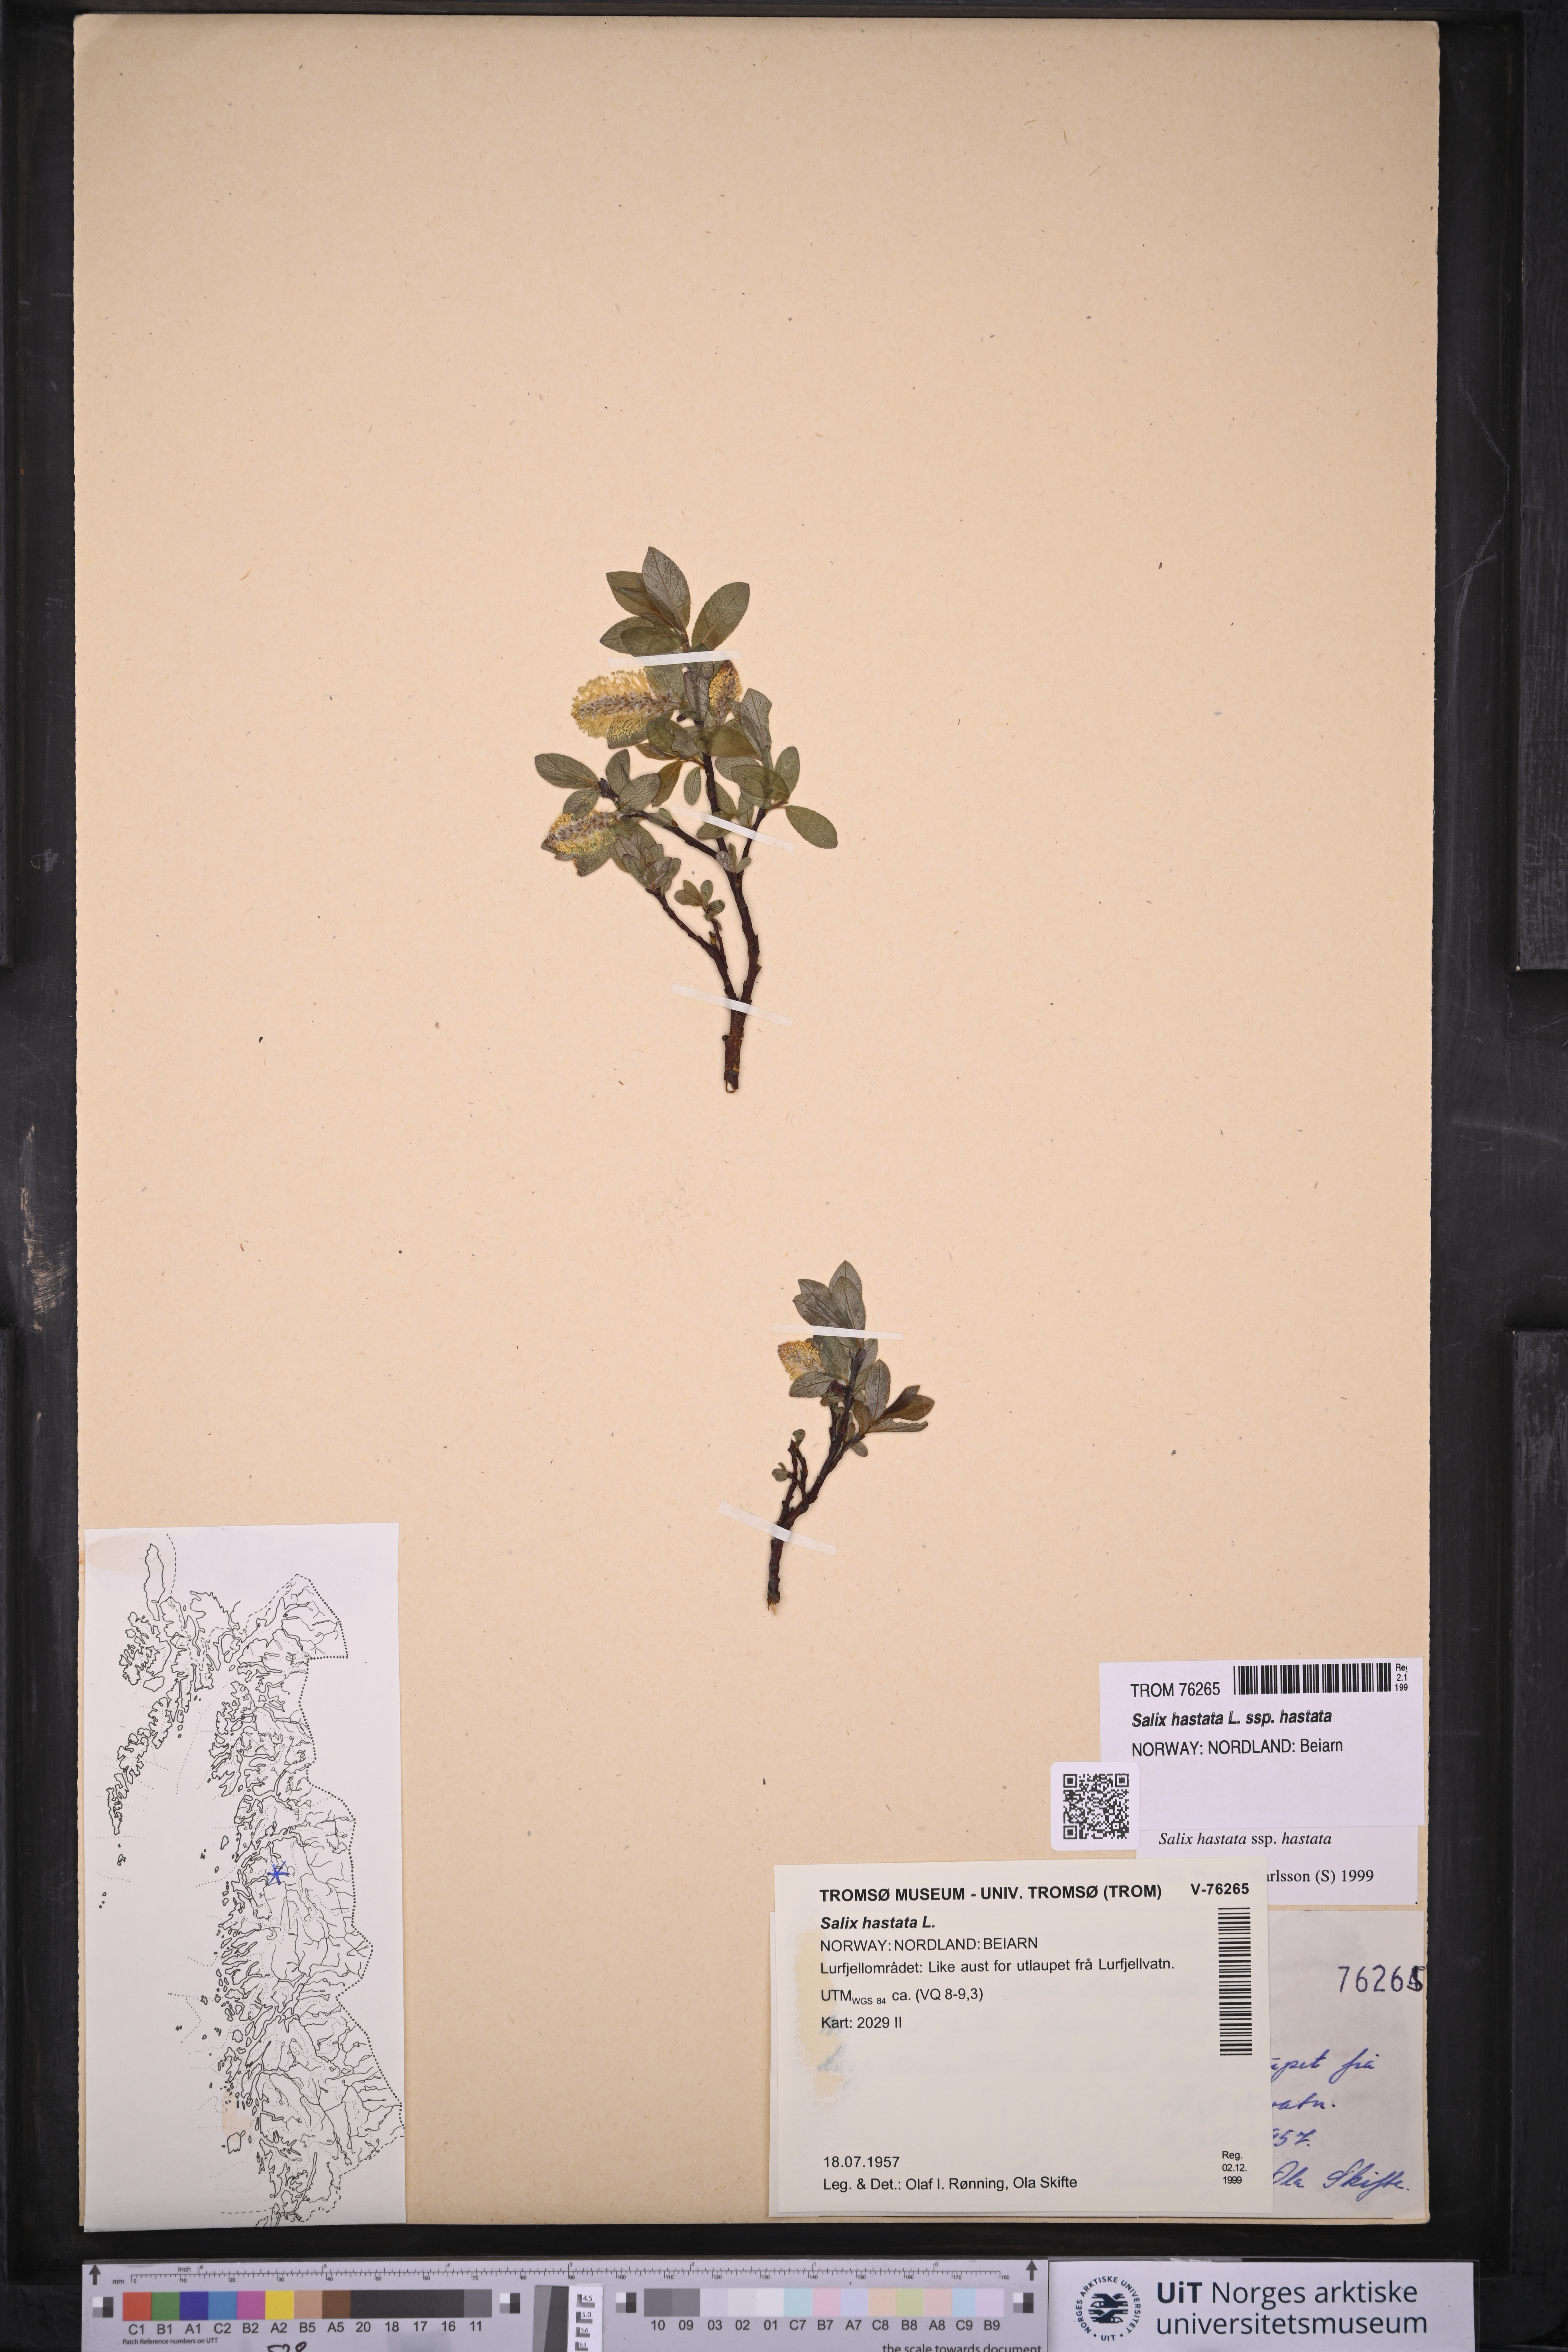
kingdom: Plantae
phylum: Tracheophyta
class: Magnoliopsida
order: Malpighiales
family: Salicaceae
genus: Salix
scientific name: Salix hastata
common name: Halberd willow
